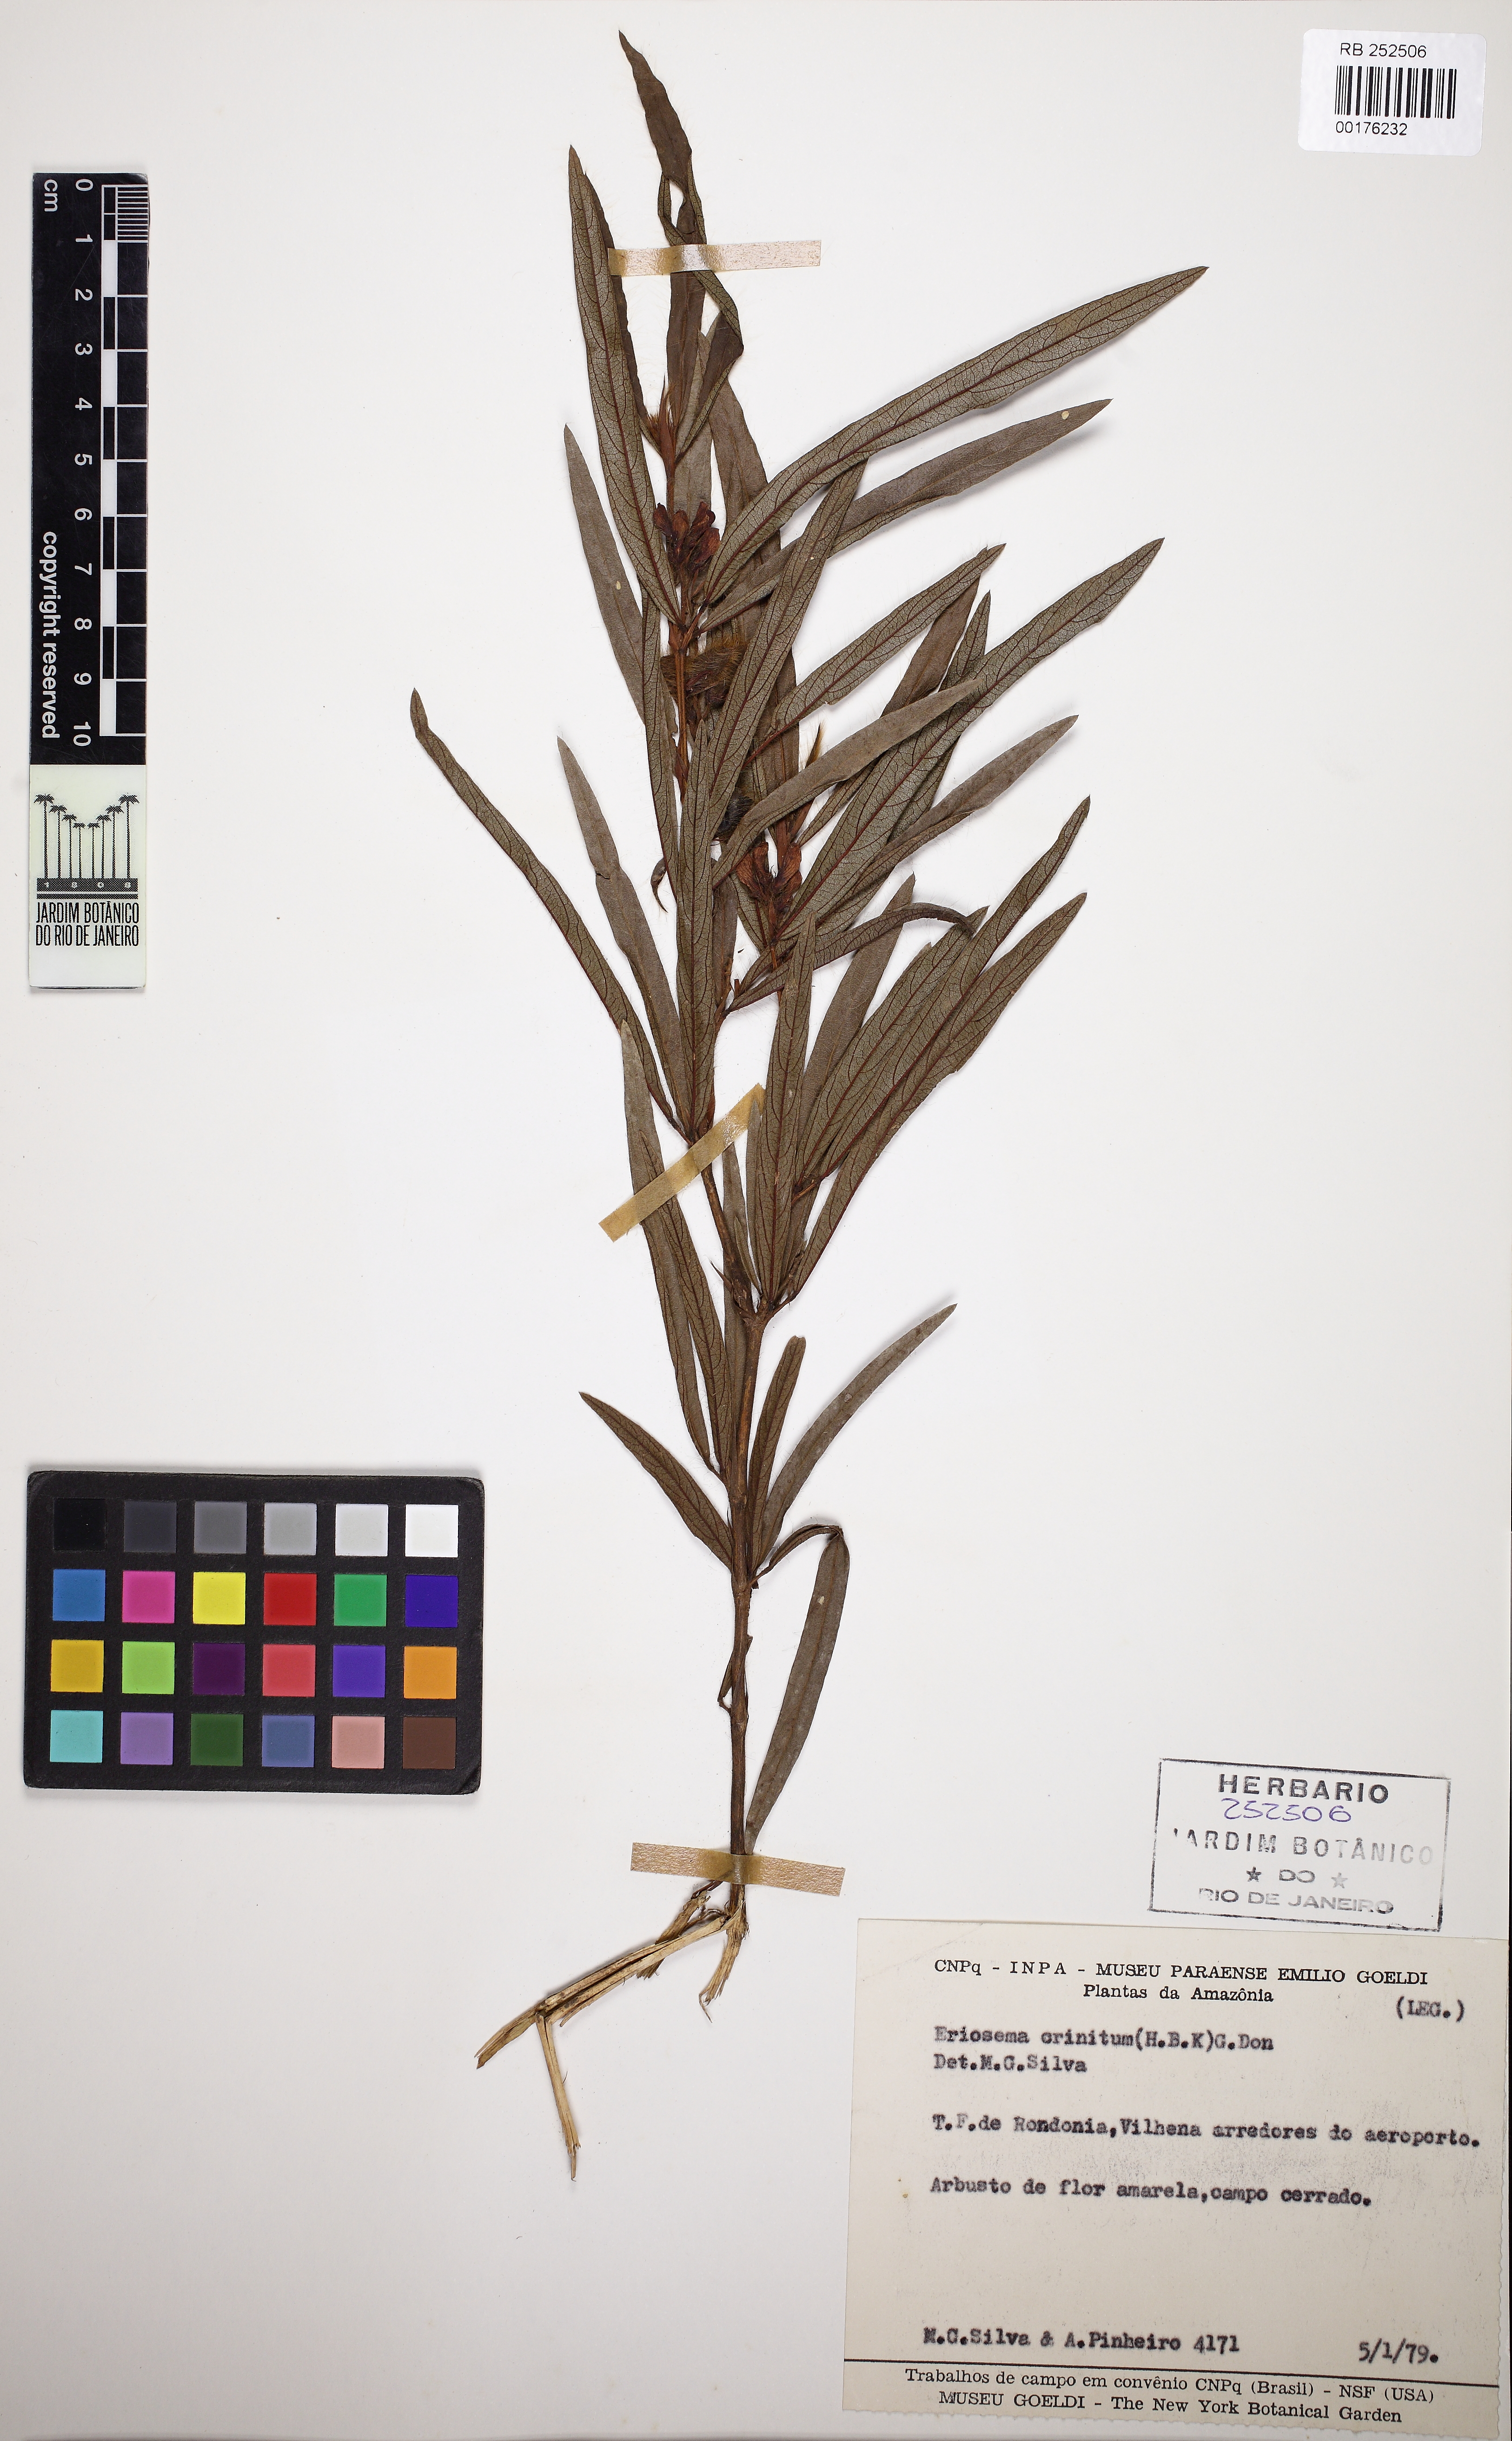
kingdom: Plantae
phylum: Tracheophyta
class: Magnoliopsida
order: Fabales
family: Fabaceae
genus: Eriosema
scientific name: Eriosema crinitum
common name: Sand pea
